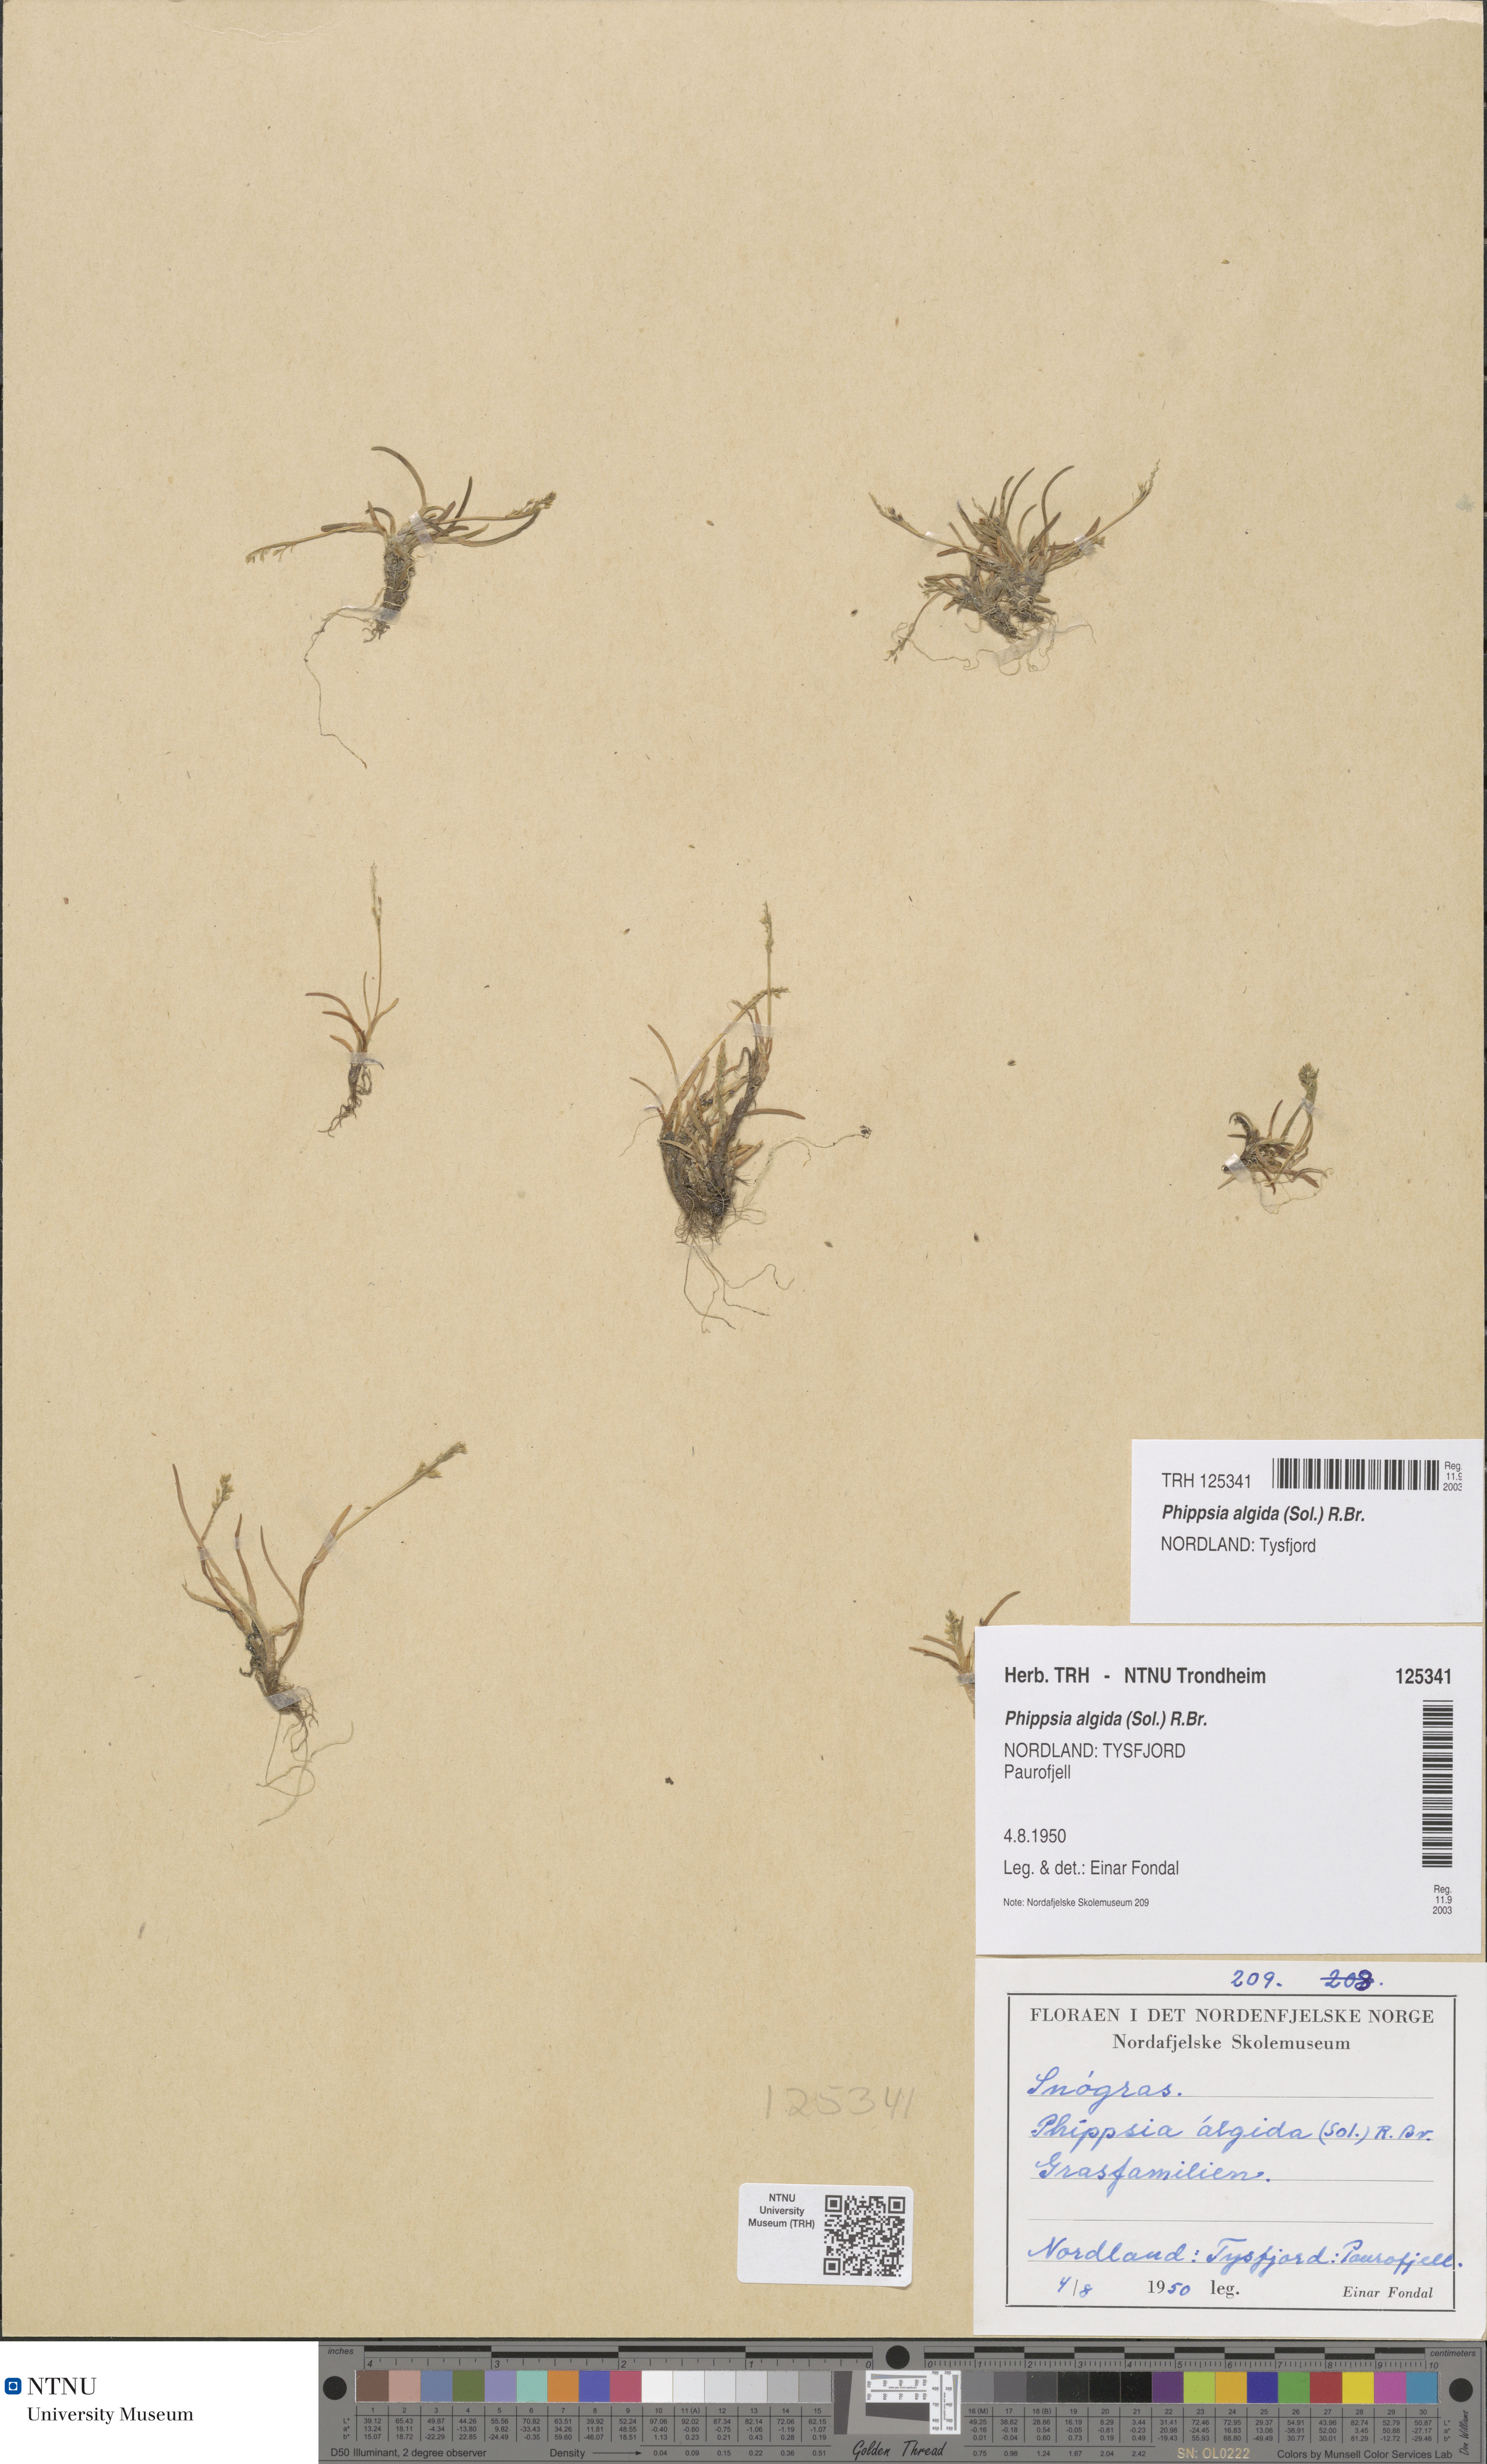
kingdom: Plantae
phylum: Tracheophyta
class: Liliopsida
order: Poales
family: Poaceae
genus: Phippsia
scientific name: Phippsia algida
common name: Ice grass
